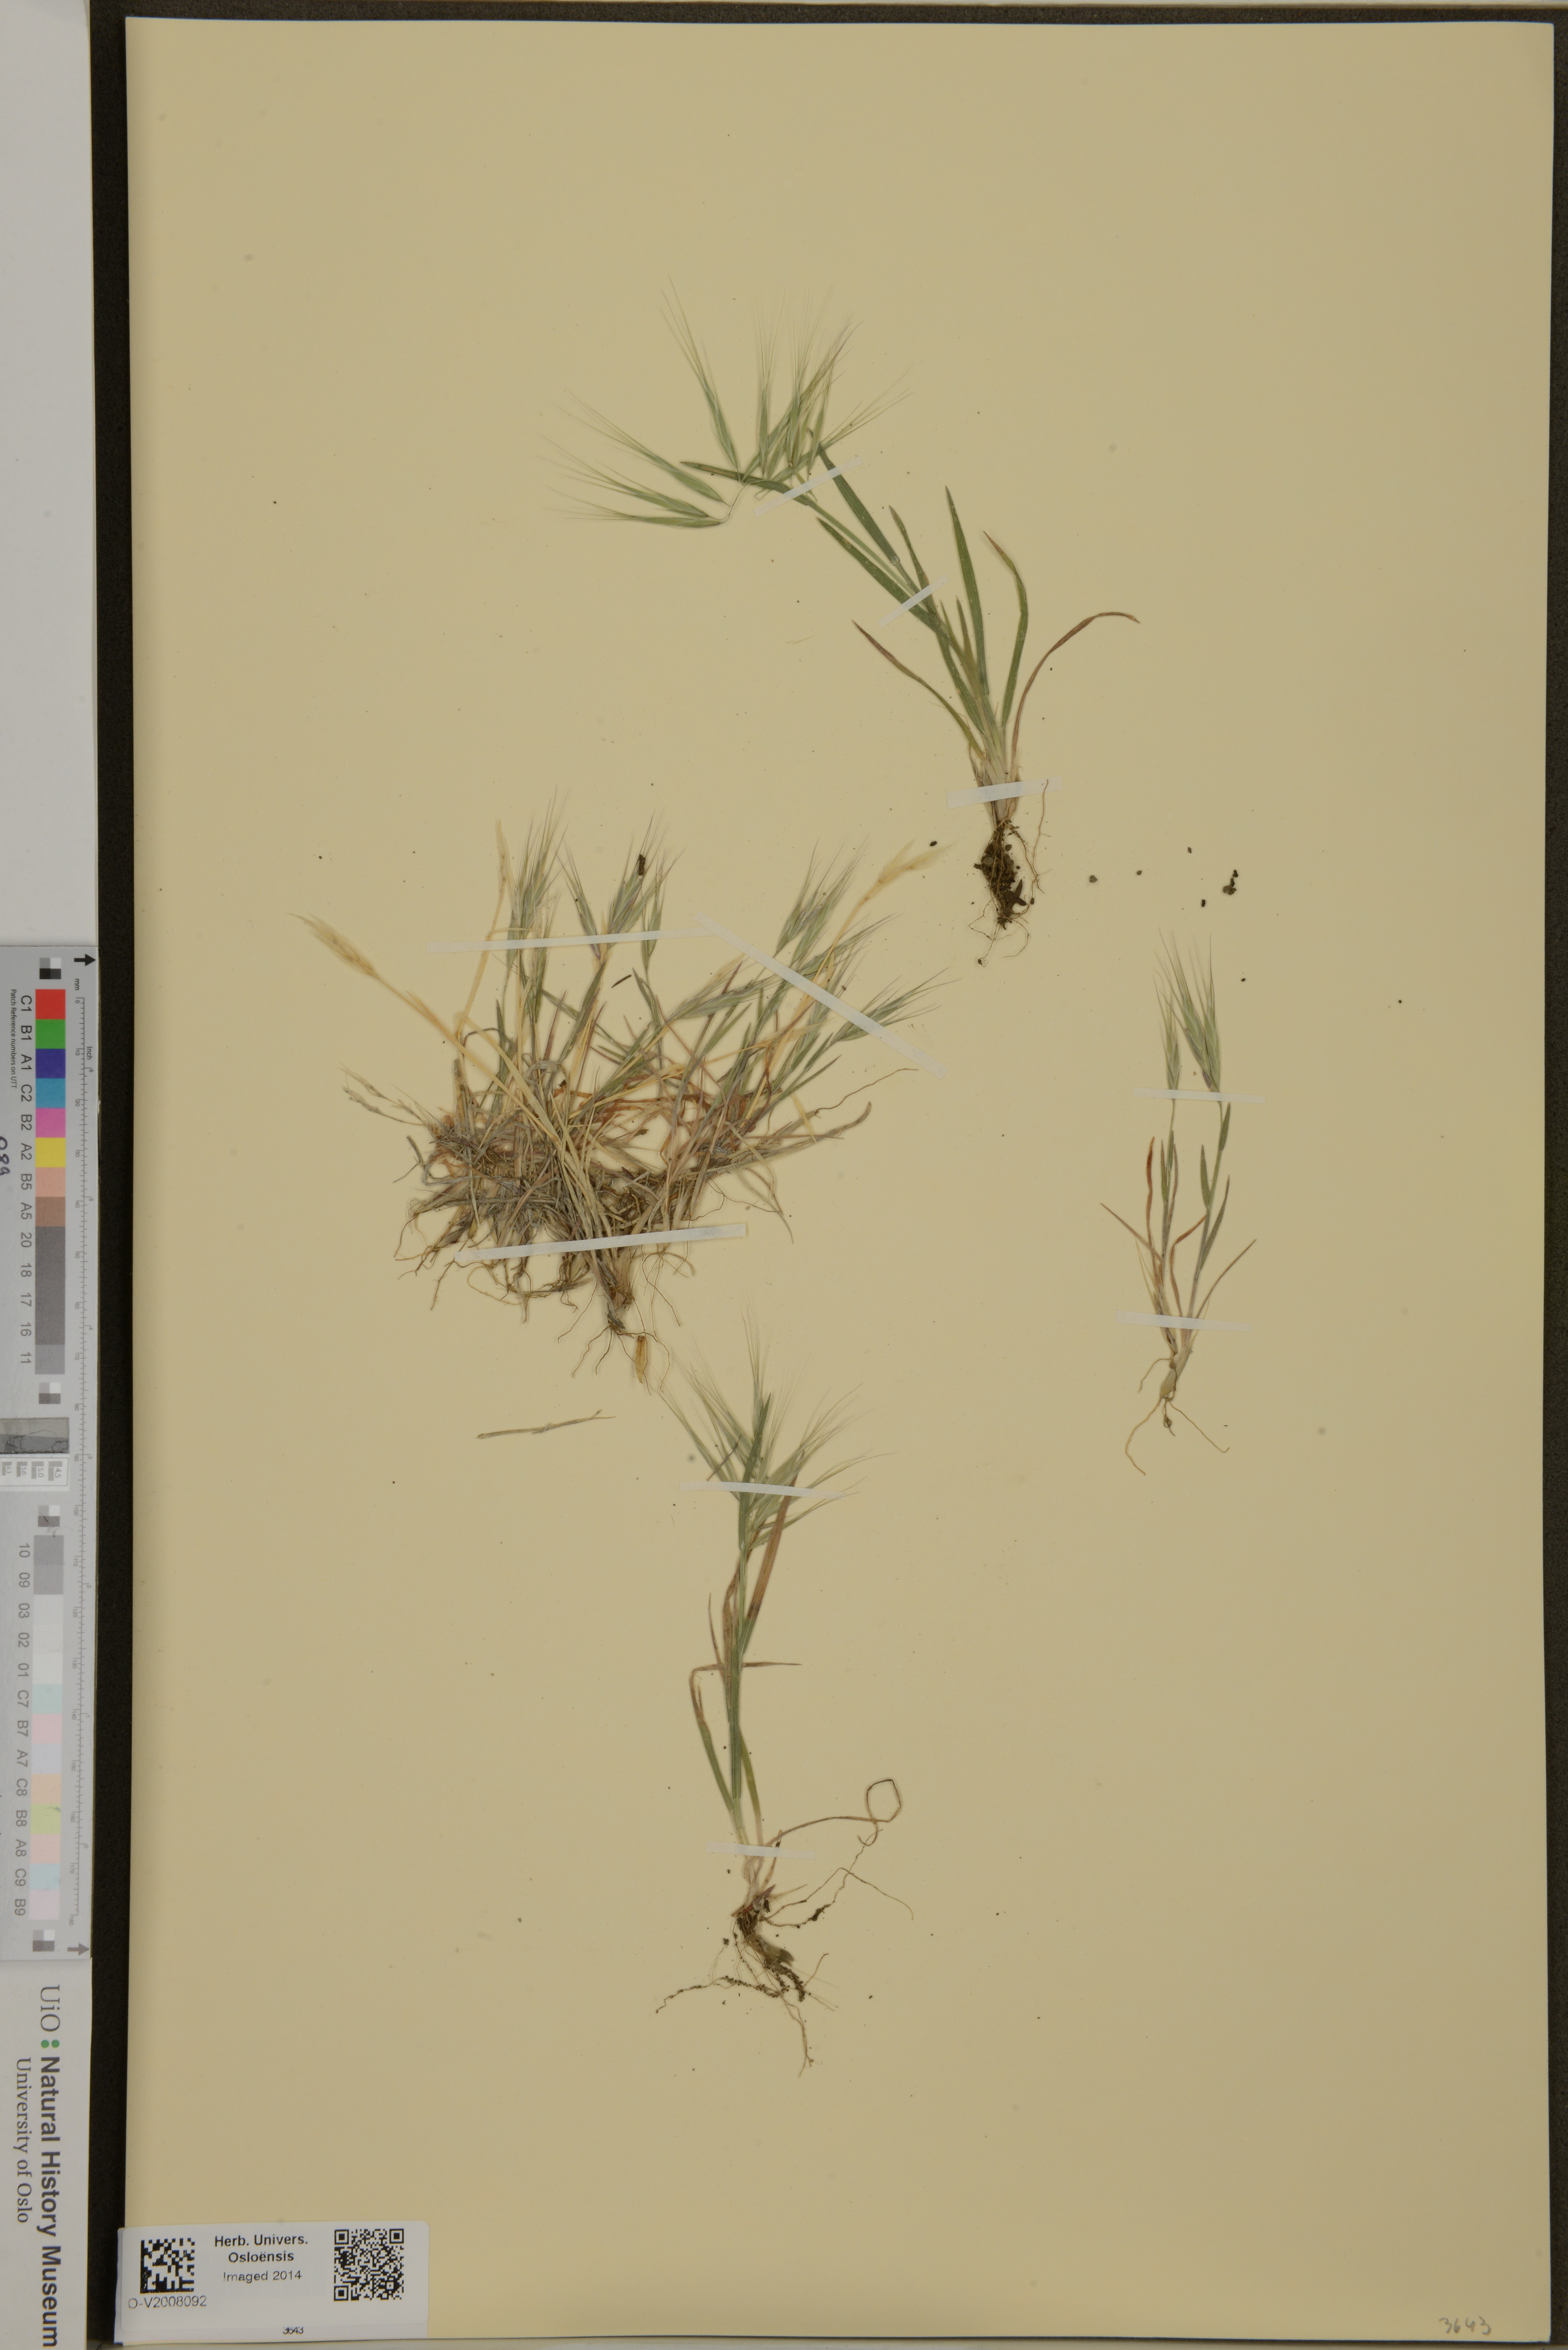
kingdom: Plantae
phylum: Tracheophyta
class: Liliopsida
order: Poales
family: Poaceae
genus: Bromus
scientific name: Bromus tectorum
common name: Cheatgrass
